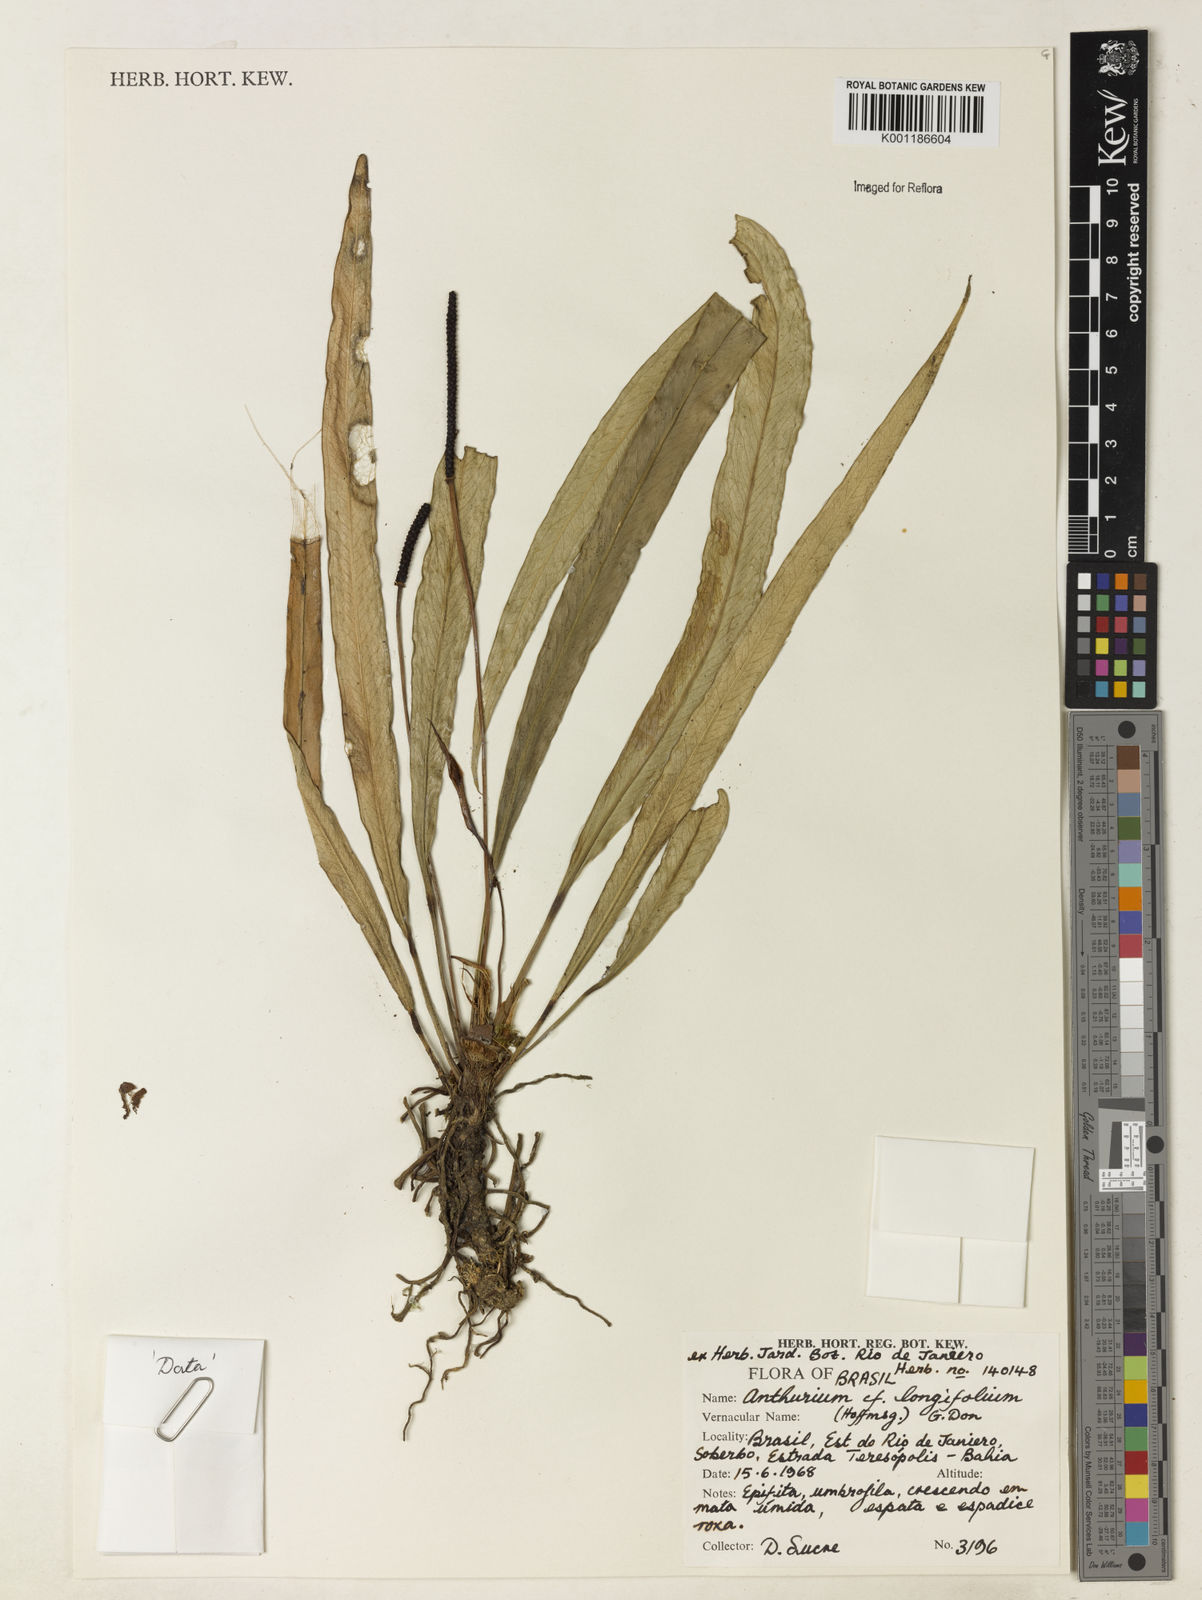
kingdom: Plantae
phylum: Tracheophyta
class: Liliopsida
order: Alismatales
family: Araceae
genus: Anthurium
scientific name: Anthurium longifolium
